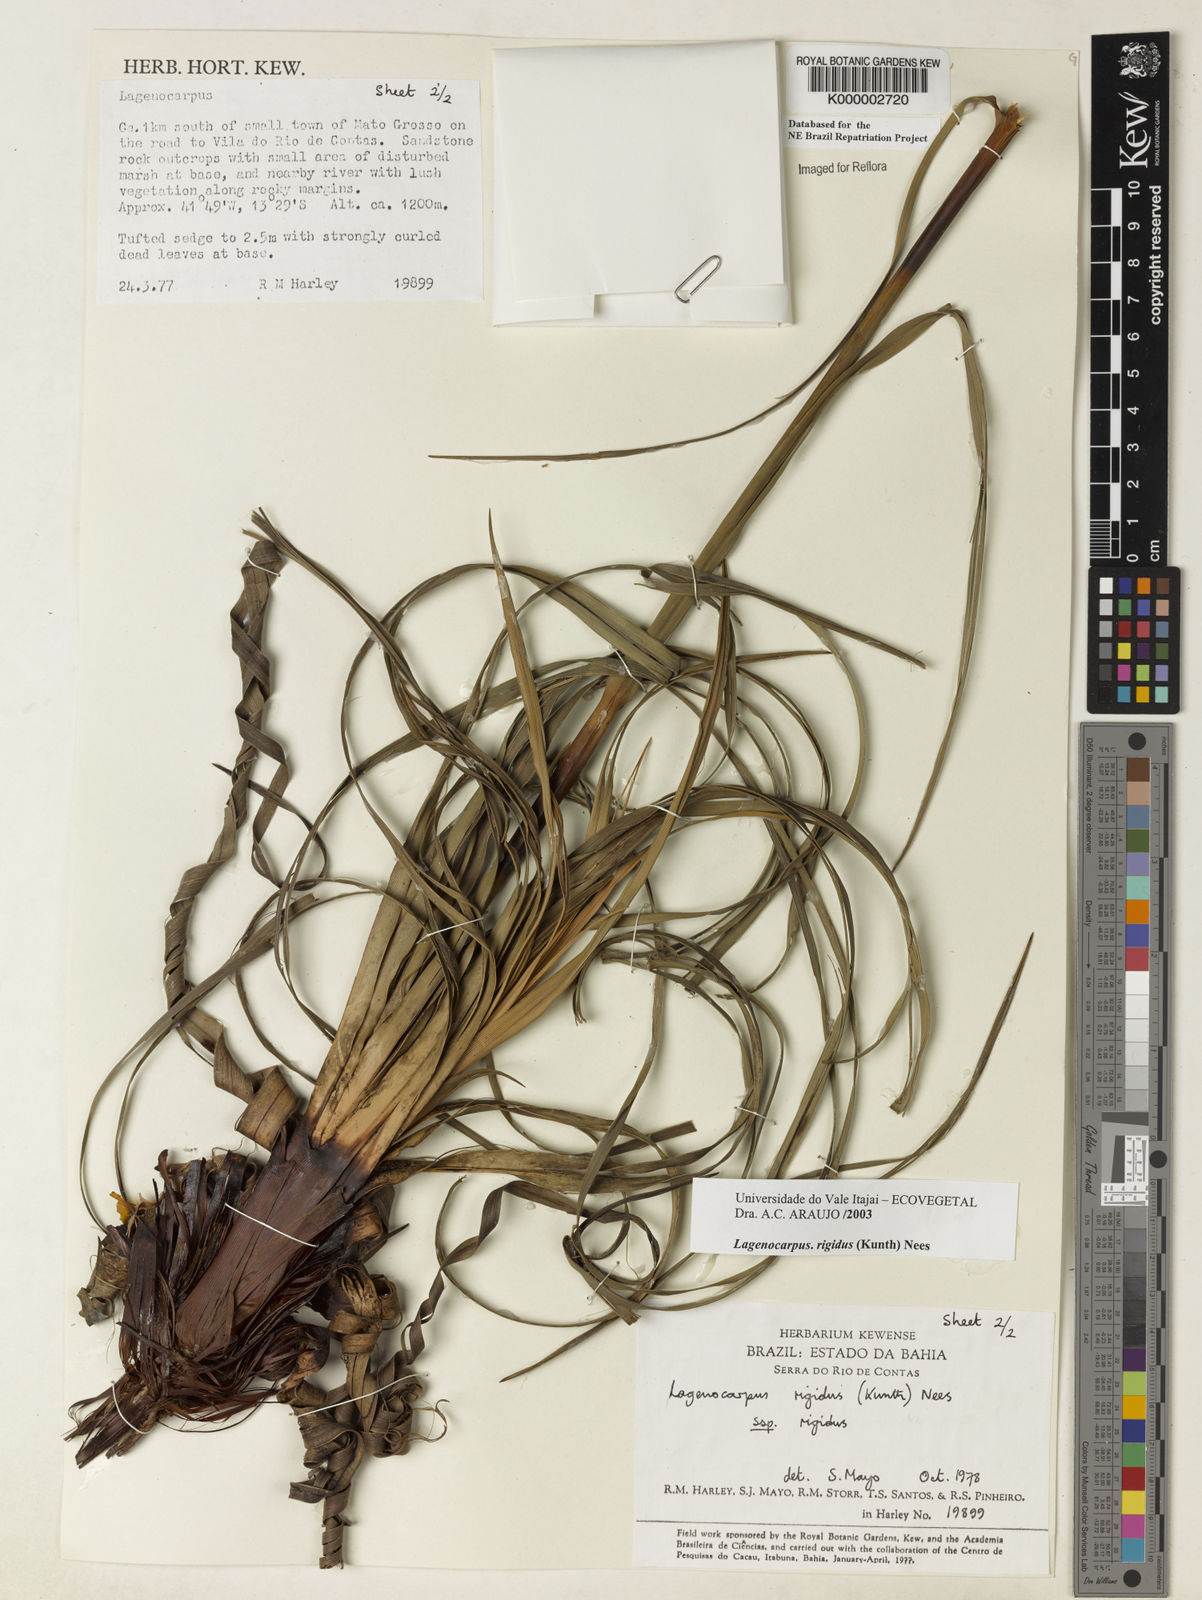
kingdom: Plantae
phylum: Tracheophyta
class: Liliopsida
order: Poales
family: Cyperaceae
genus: Lagenocarpus
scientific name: Lagenocarpus rigidus
